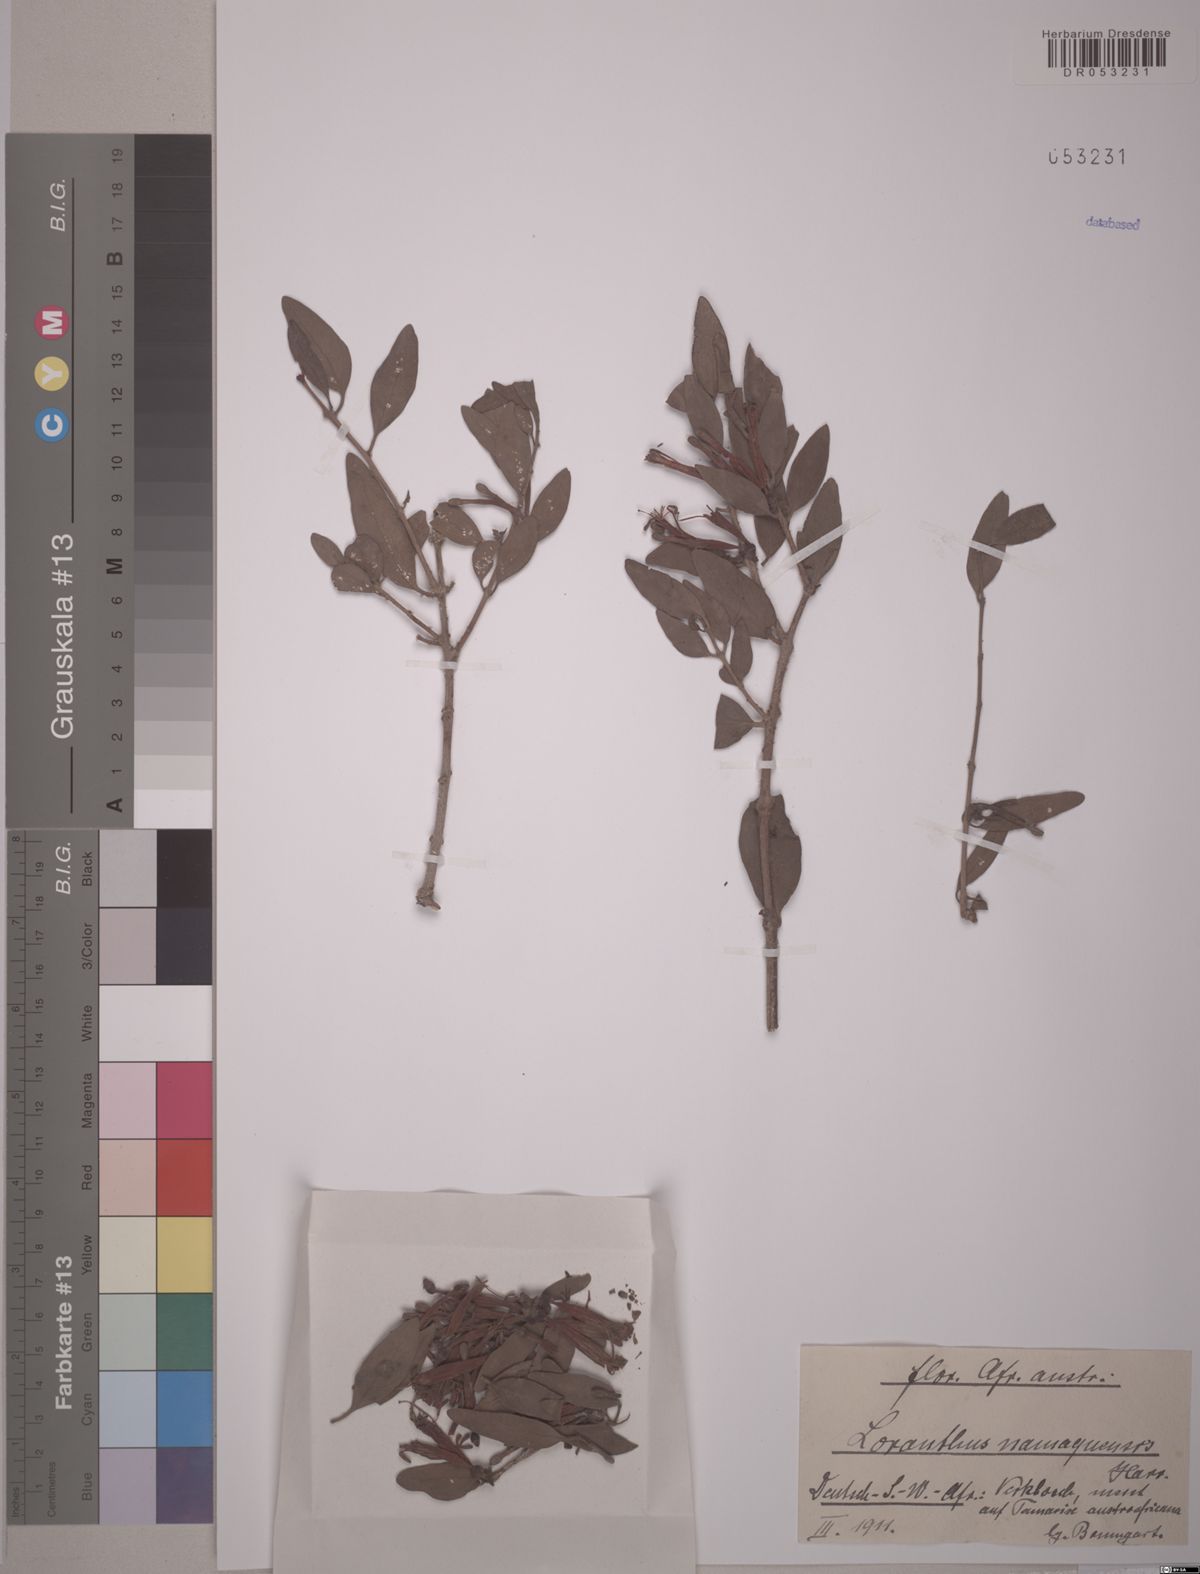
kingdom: Plantae
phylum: Tracheophyta
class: Magnoliopsida
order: Santalales
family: Loranthaceae
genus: Tapinanthus
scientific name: Tapinanthus oleifolius
